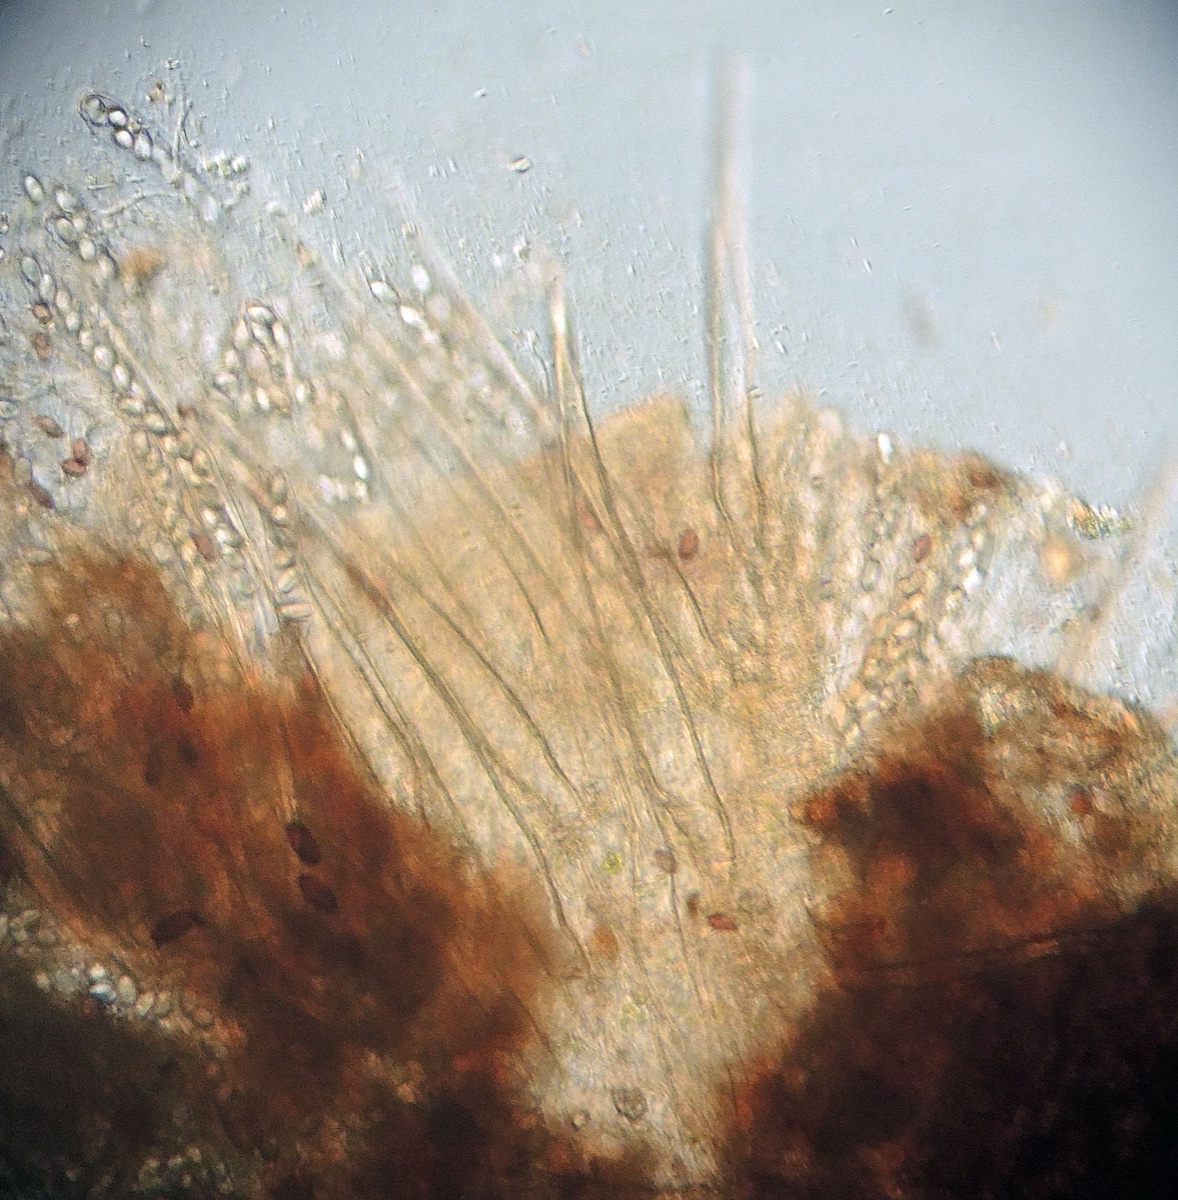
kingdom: Fungi
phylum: Ascomycota
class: Pezizomycetes
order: Pezizales
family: Ascodesmidaceae
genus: Lasiobolus
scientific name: Lasiobolus papillatus
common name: enradet øjebæger
